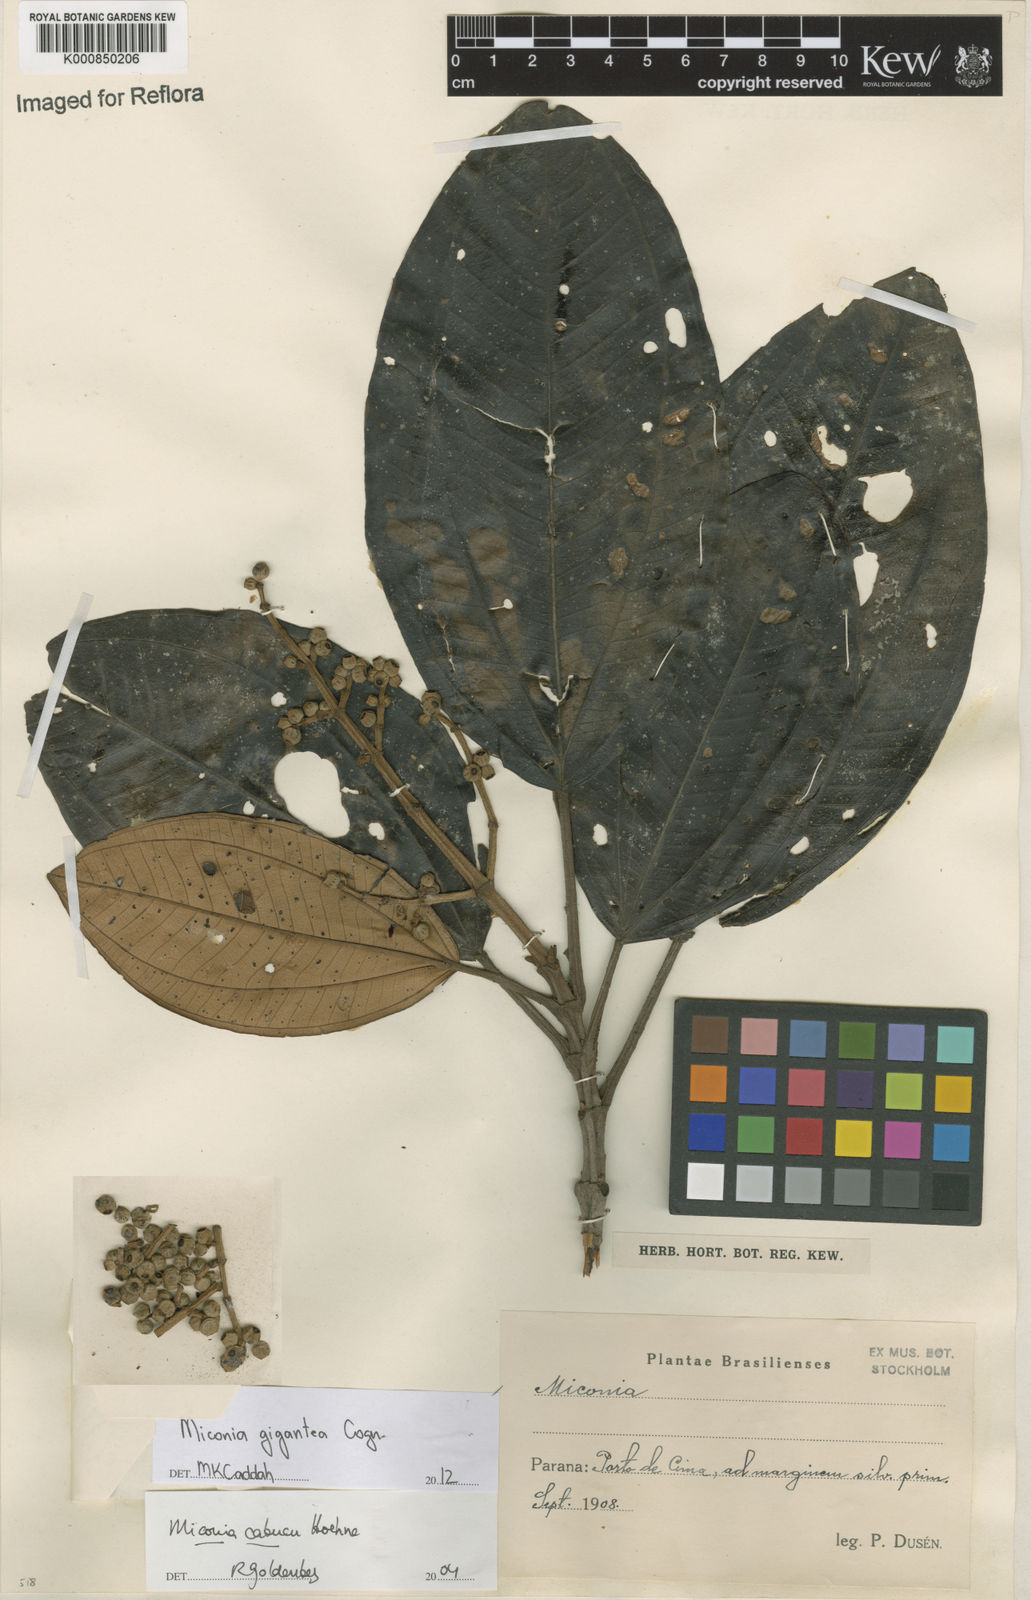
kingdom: Plantae
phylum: Tracheophyta
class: Magnoliopsida
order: Myrtales
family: Melastomataceae
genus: Miconia
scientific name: Miconia formosa
